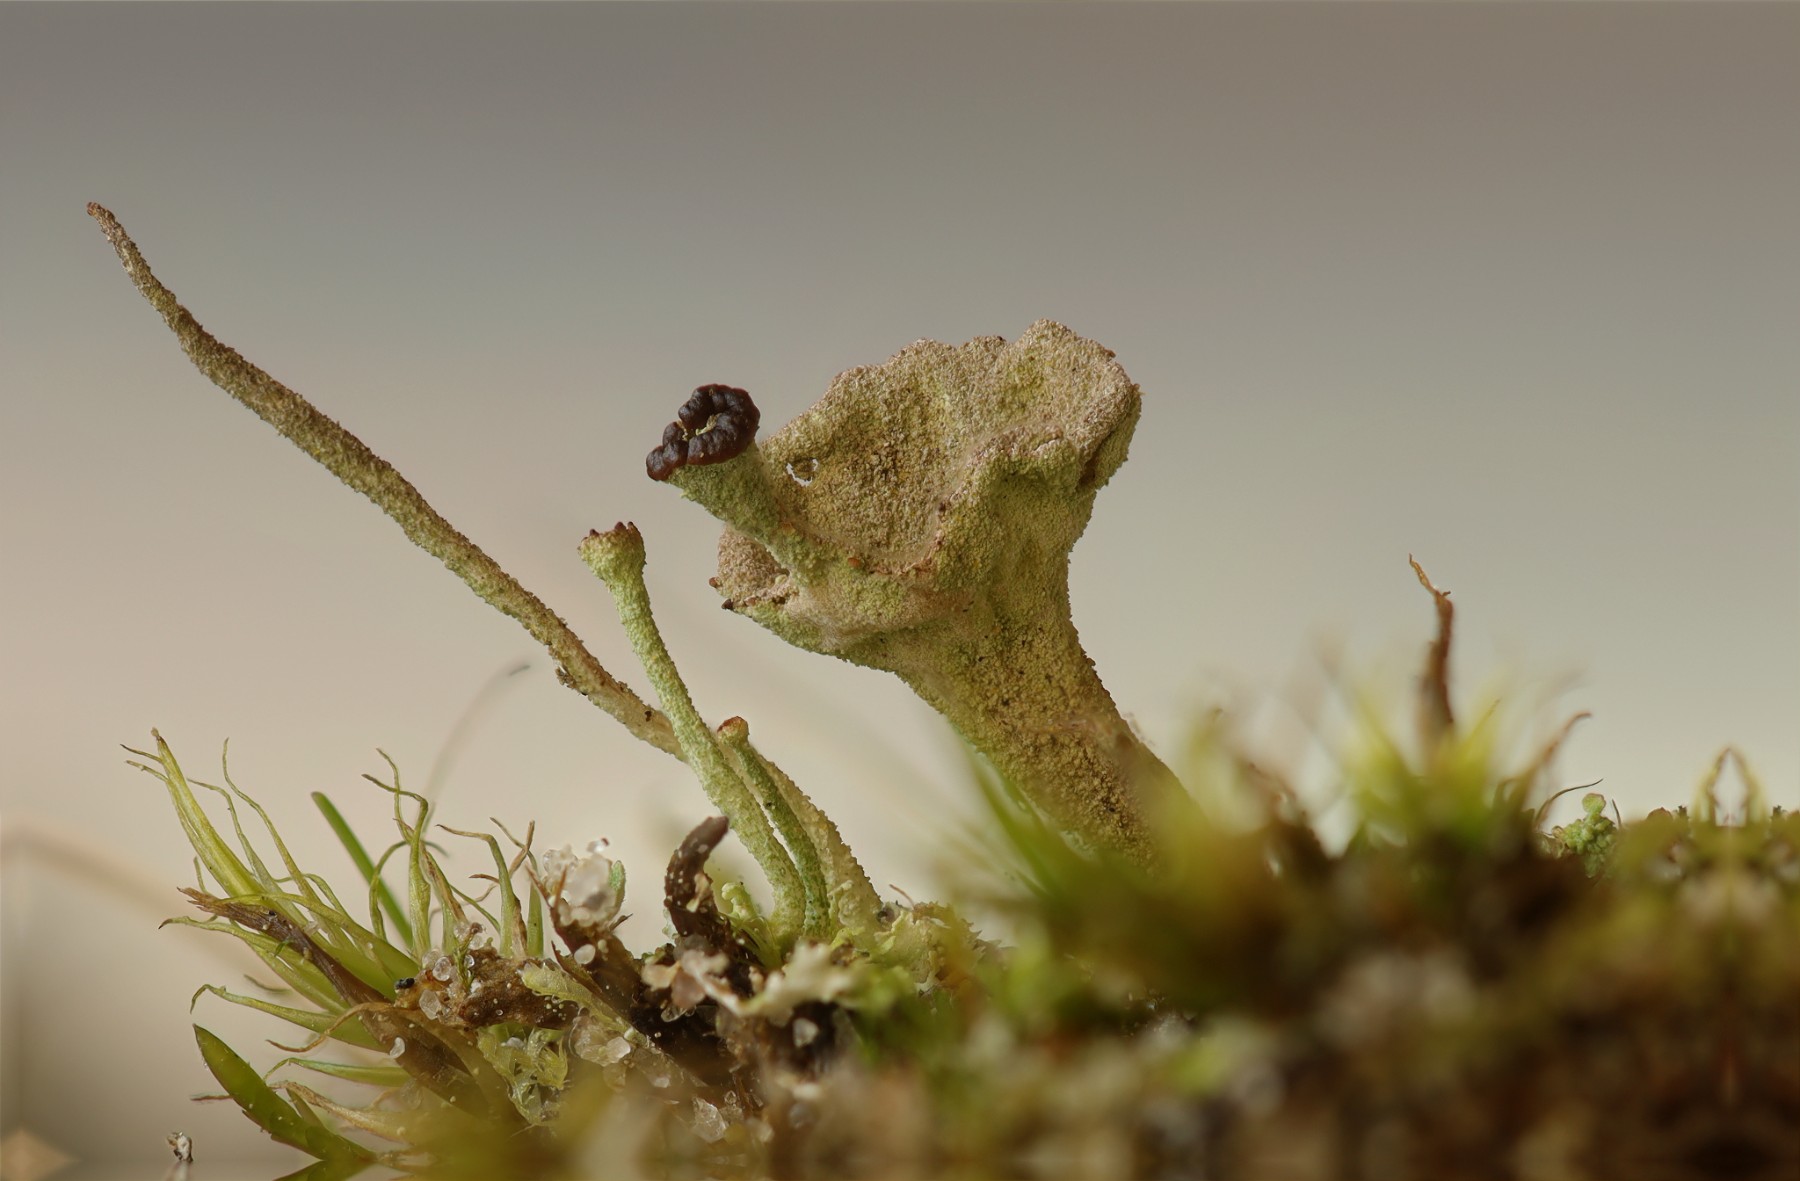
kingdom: Fungi
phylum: Ascomycota
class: Lecanoromycetes
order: Lecanorales
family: Cladoniaceae
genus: Cladonia
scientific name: Cladonia
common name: brungrøn bægerlav
